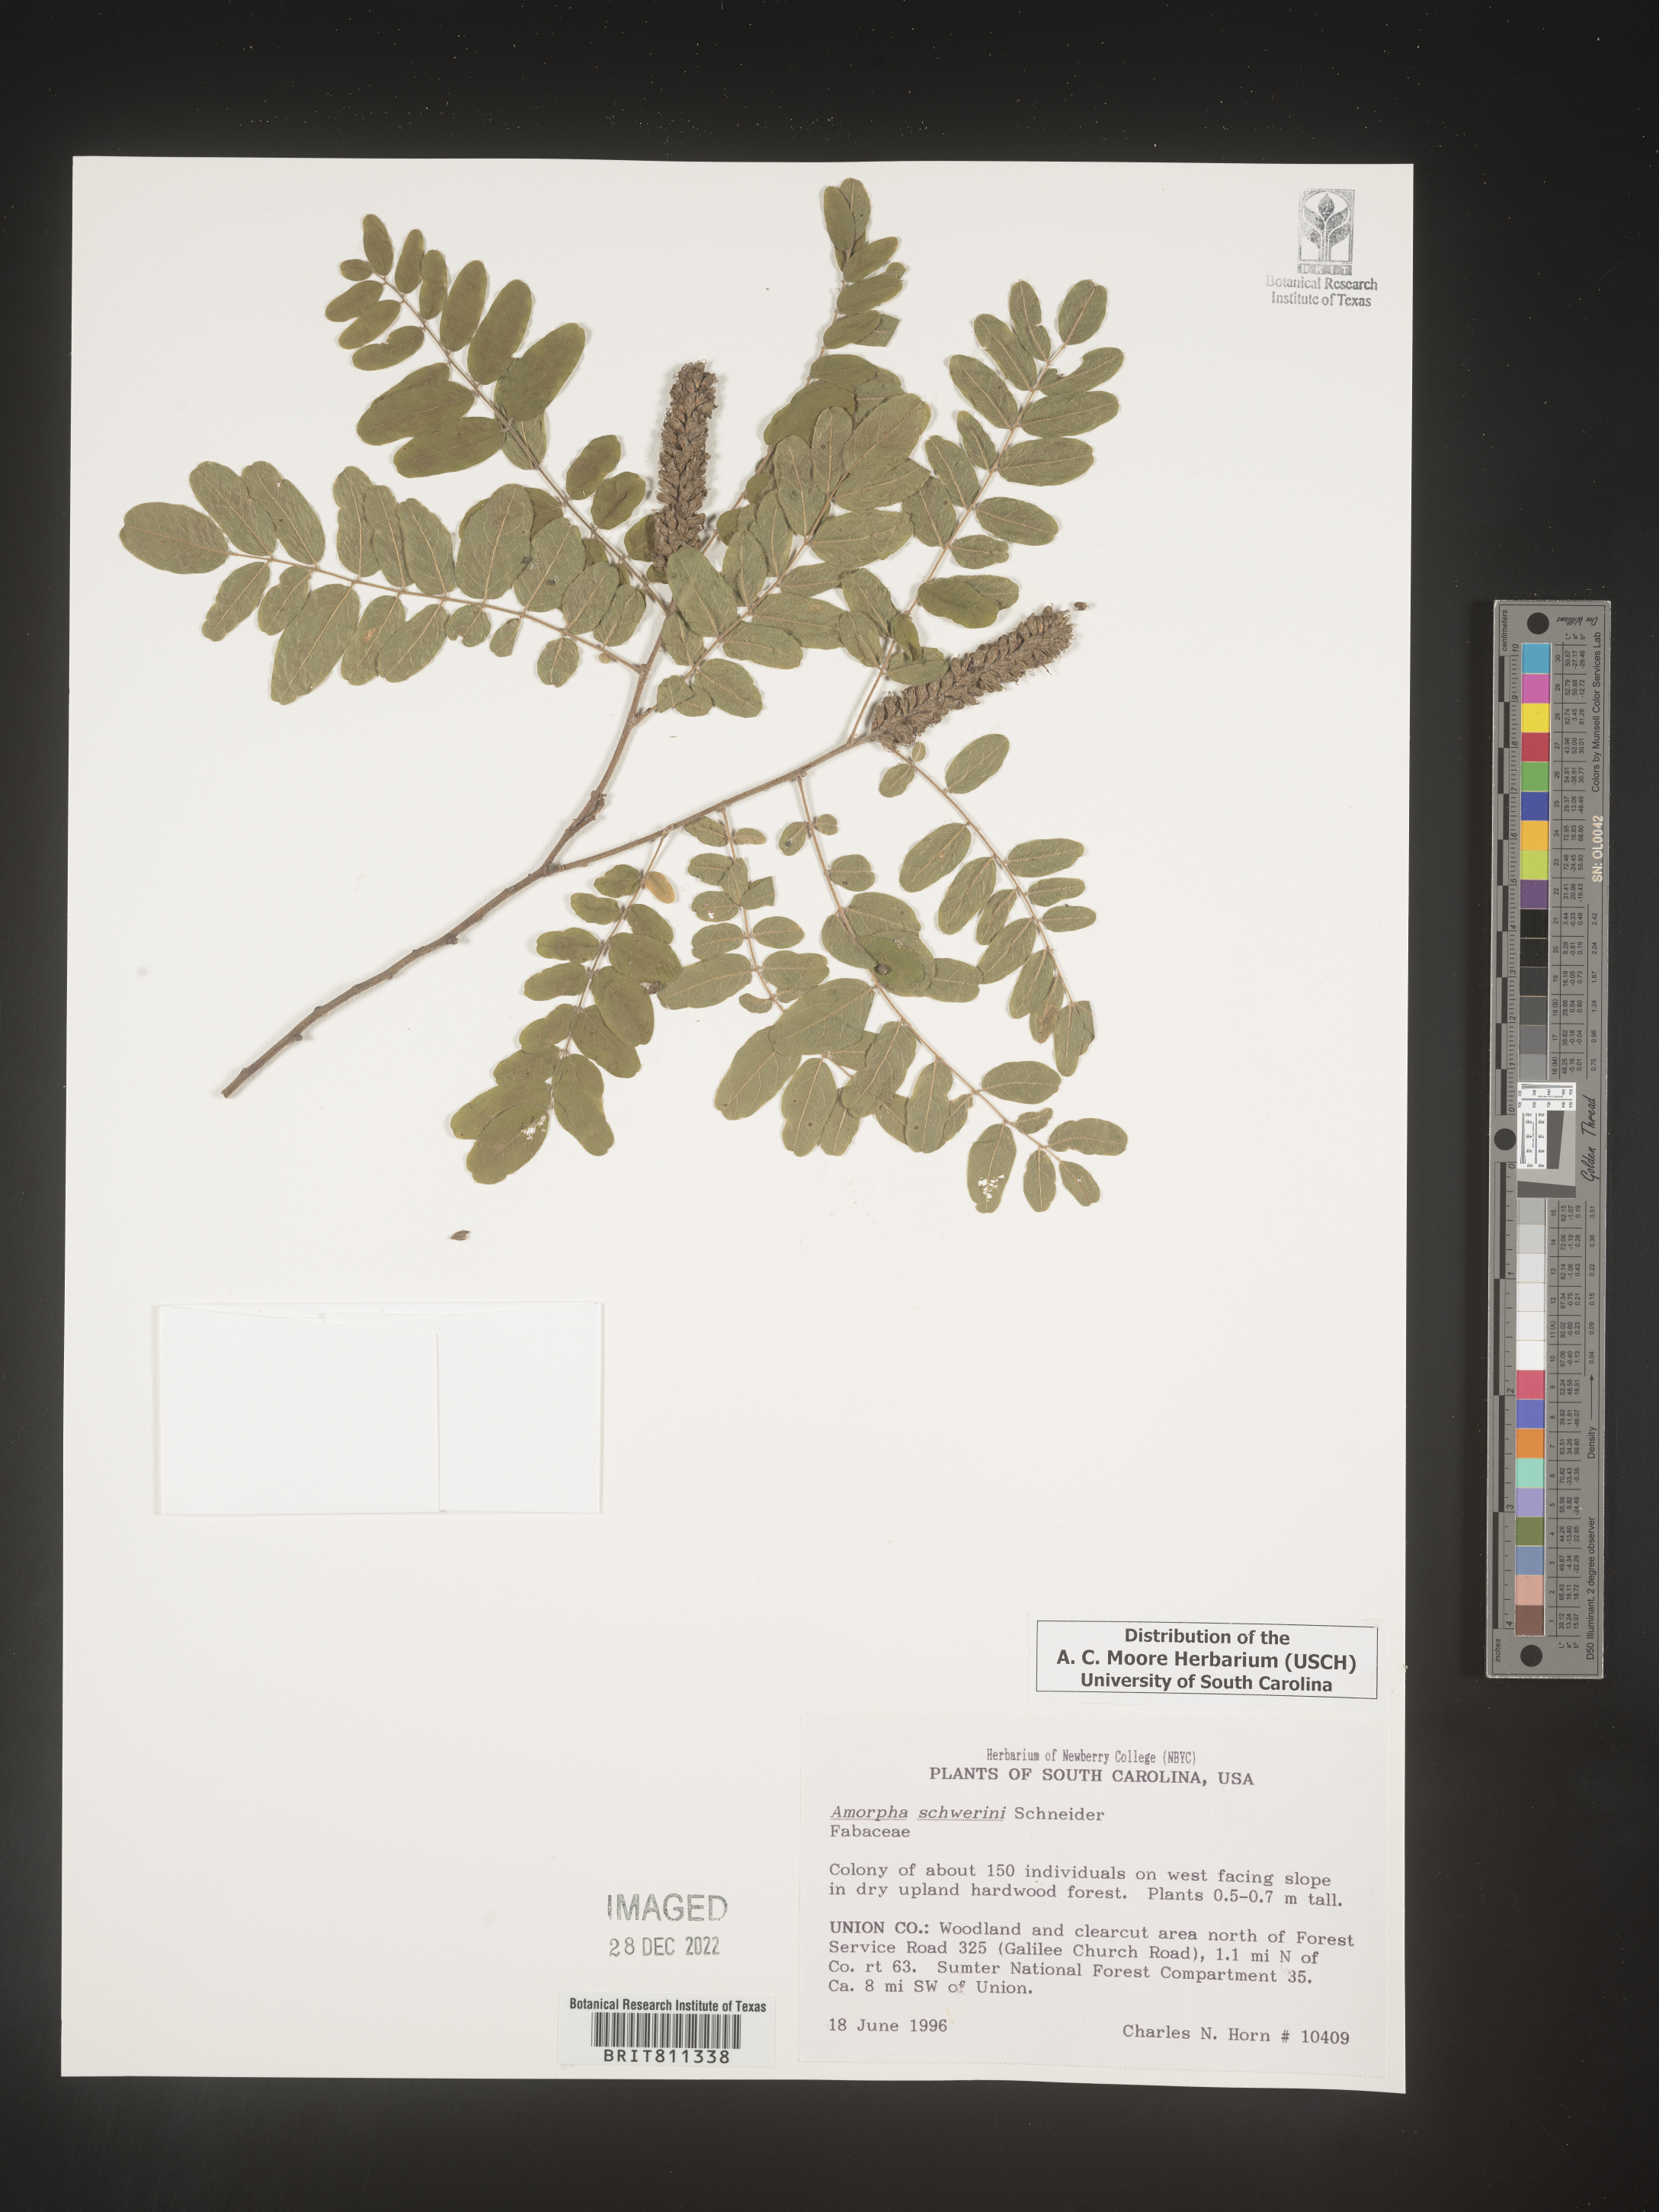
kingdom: Plantae
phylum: Tracheophyta
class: Magnoliopsida
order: Fabales
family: Fabaceae
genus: Amorpha
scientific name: Amorpha schwerinii
